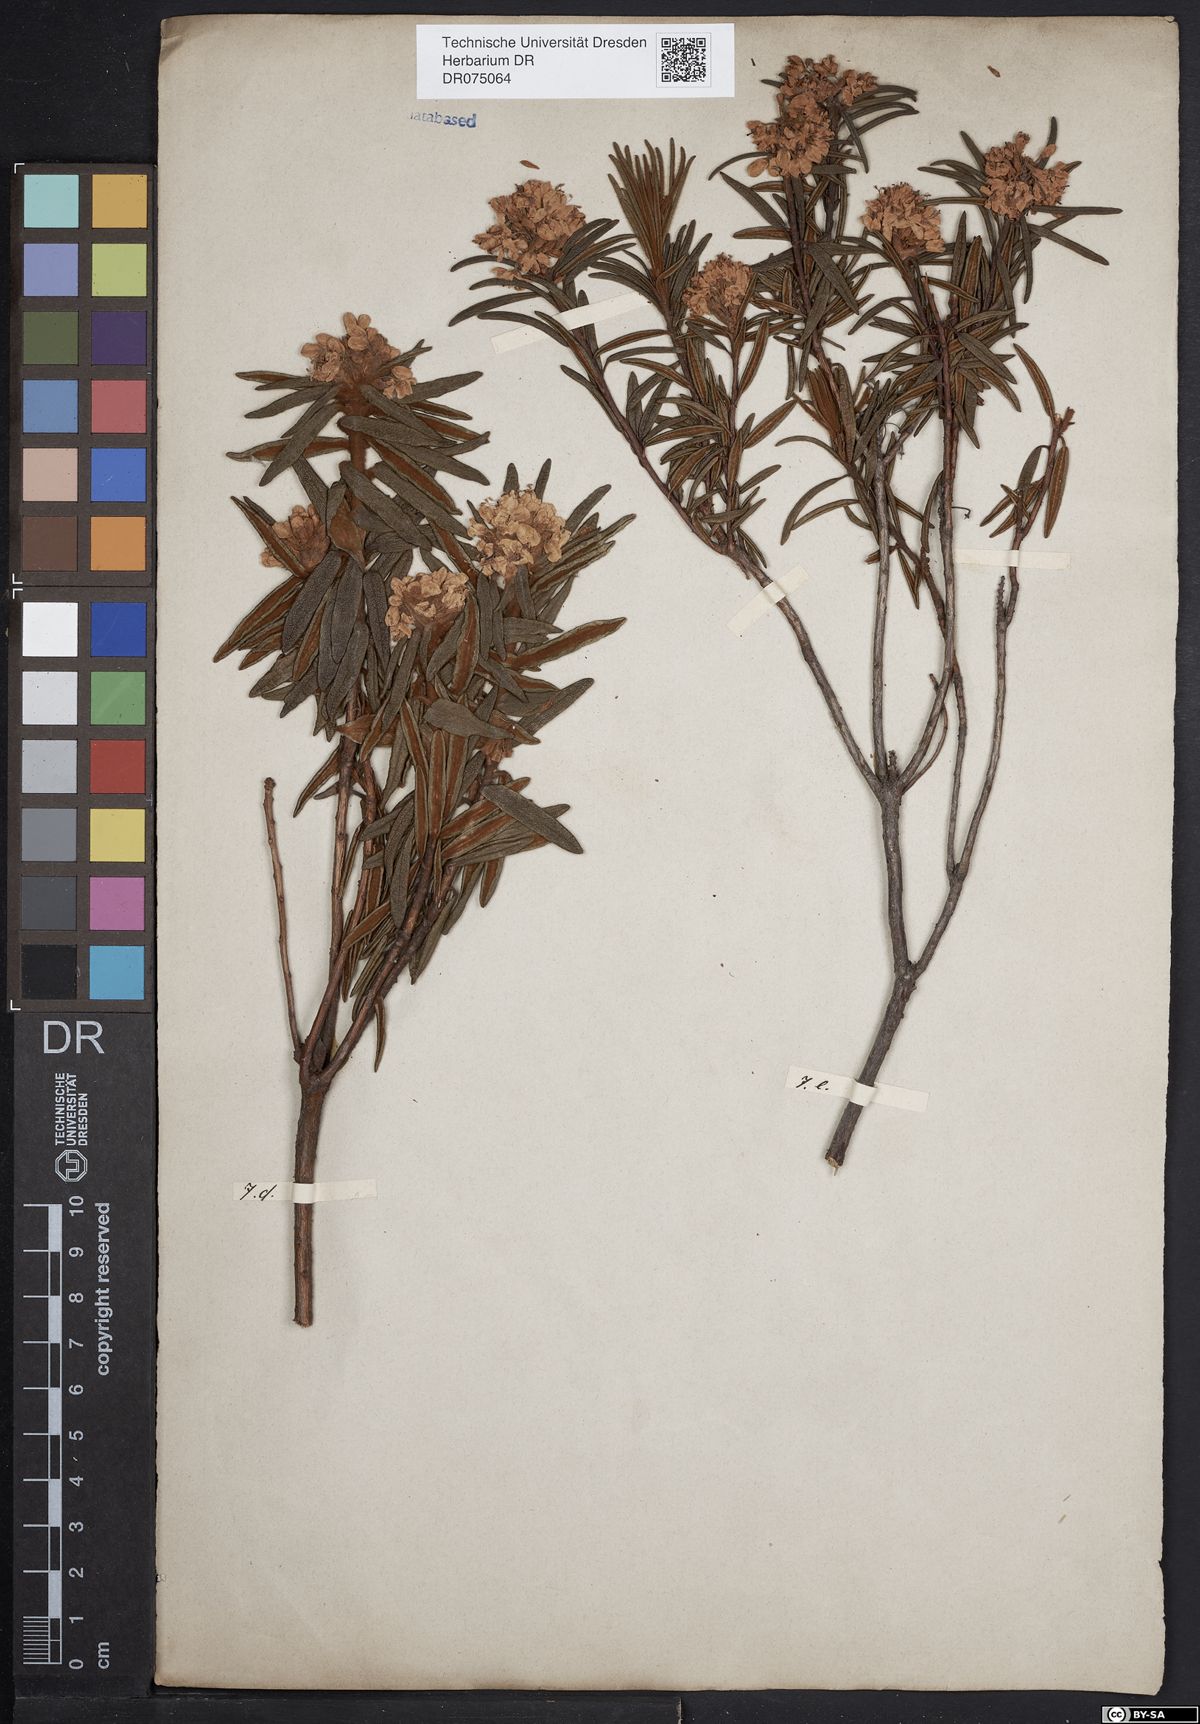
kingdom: Plantae
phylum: Tracheophyta
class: Magnoliopsida
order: Ericales
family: Ericaceae
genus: Rhododendron
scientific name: Rhododendron tomentosum
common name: Marsh labrador tea
